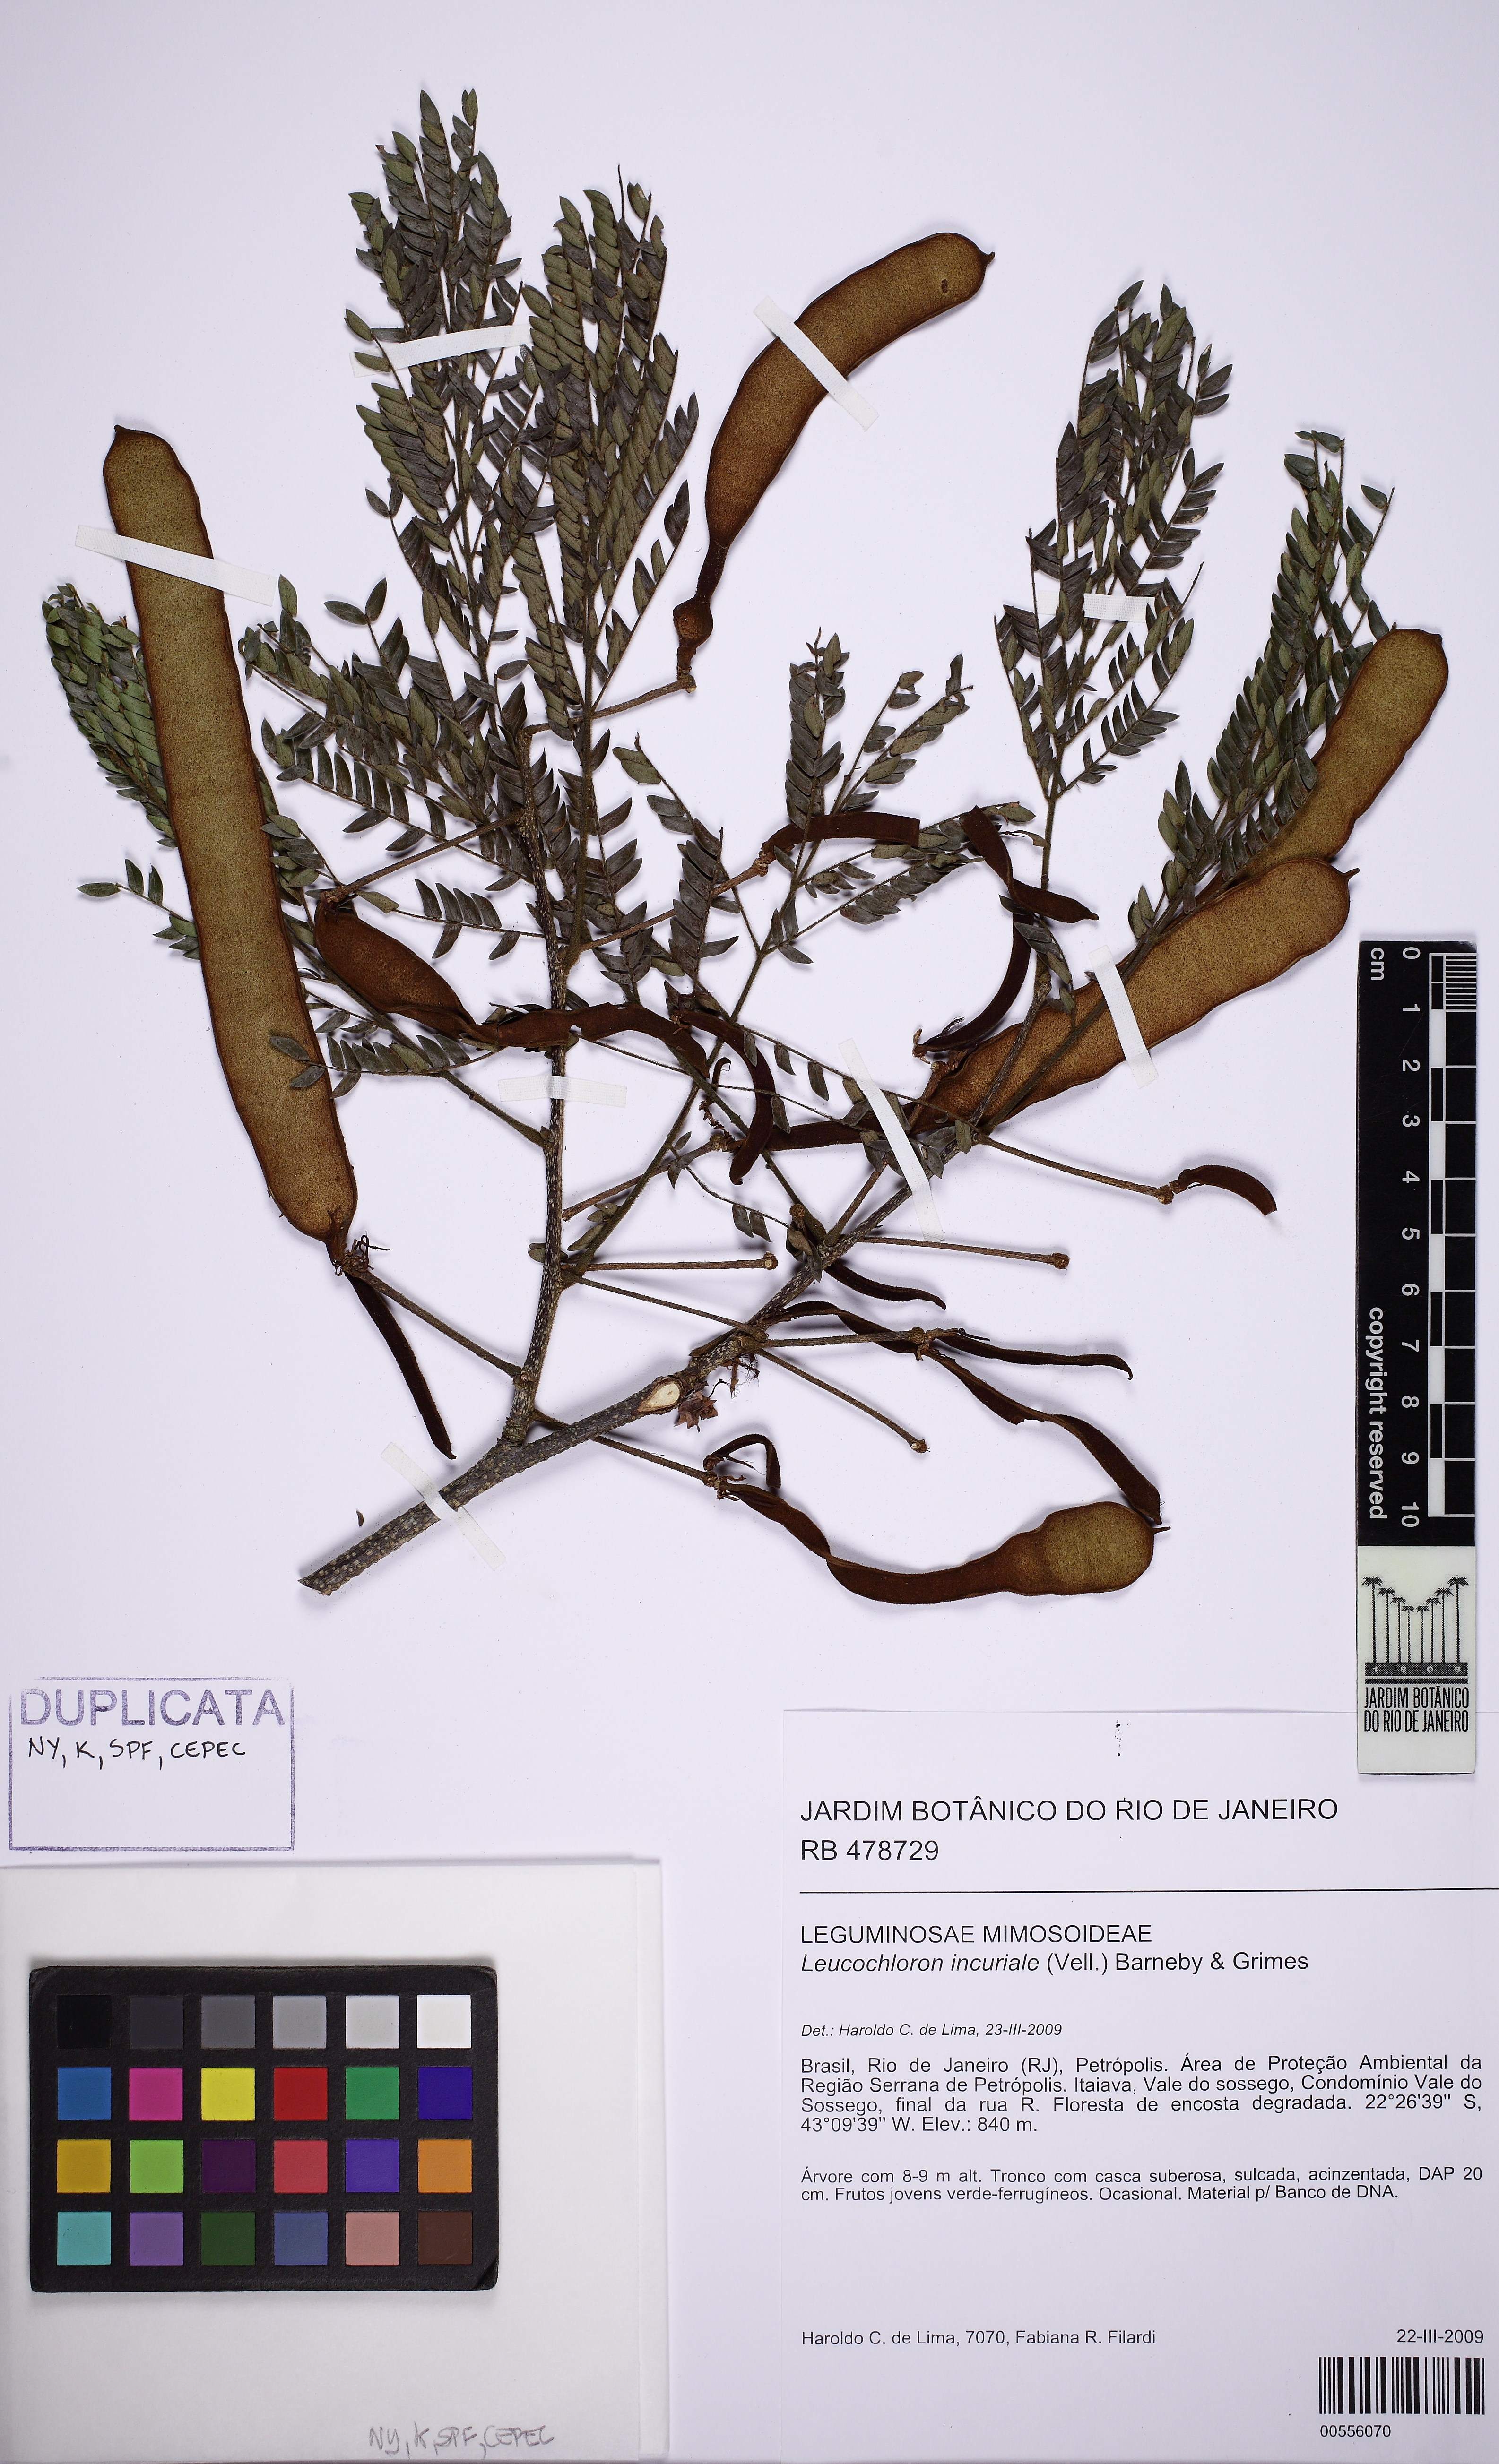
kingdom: Plantae
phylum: Tracheophyta
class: Magnoliopsida
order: Fabales
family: Fabaceae
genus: Leucochloron
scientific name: Leucochloron incuriale
